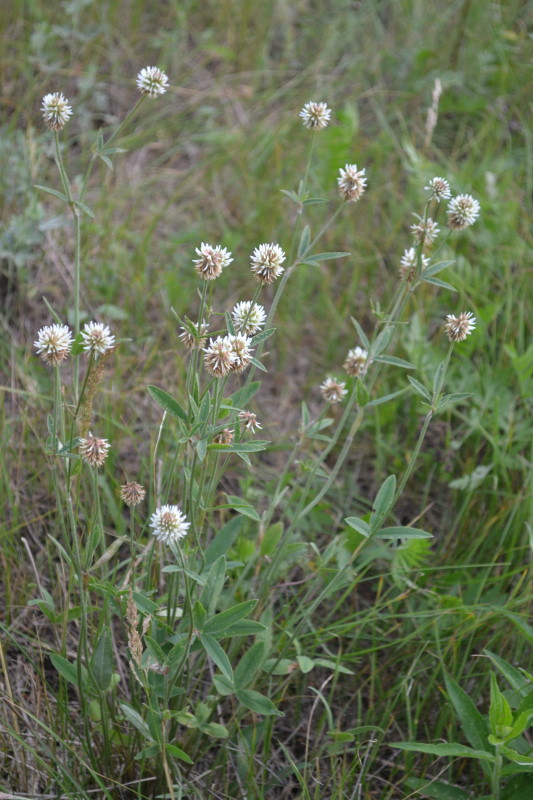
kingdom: Plantae
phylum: Tracheophyta
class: Magnoliopsida
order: Fabales
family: Fabaceae
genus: Trifolium
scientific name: Trifolium montanum
